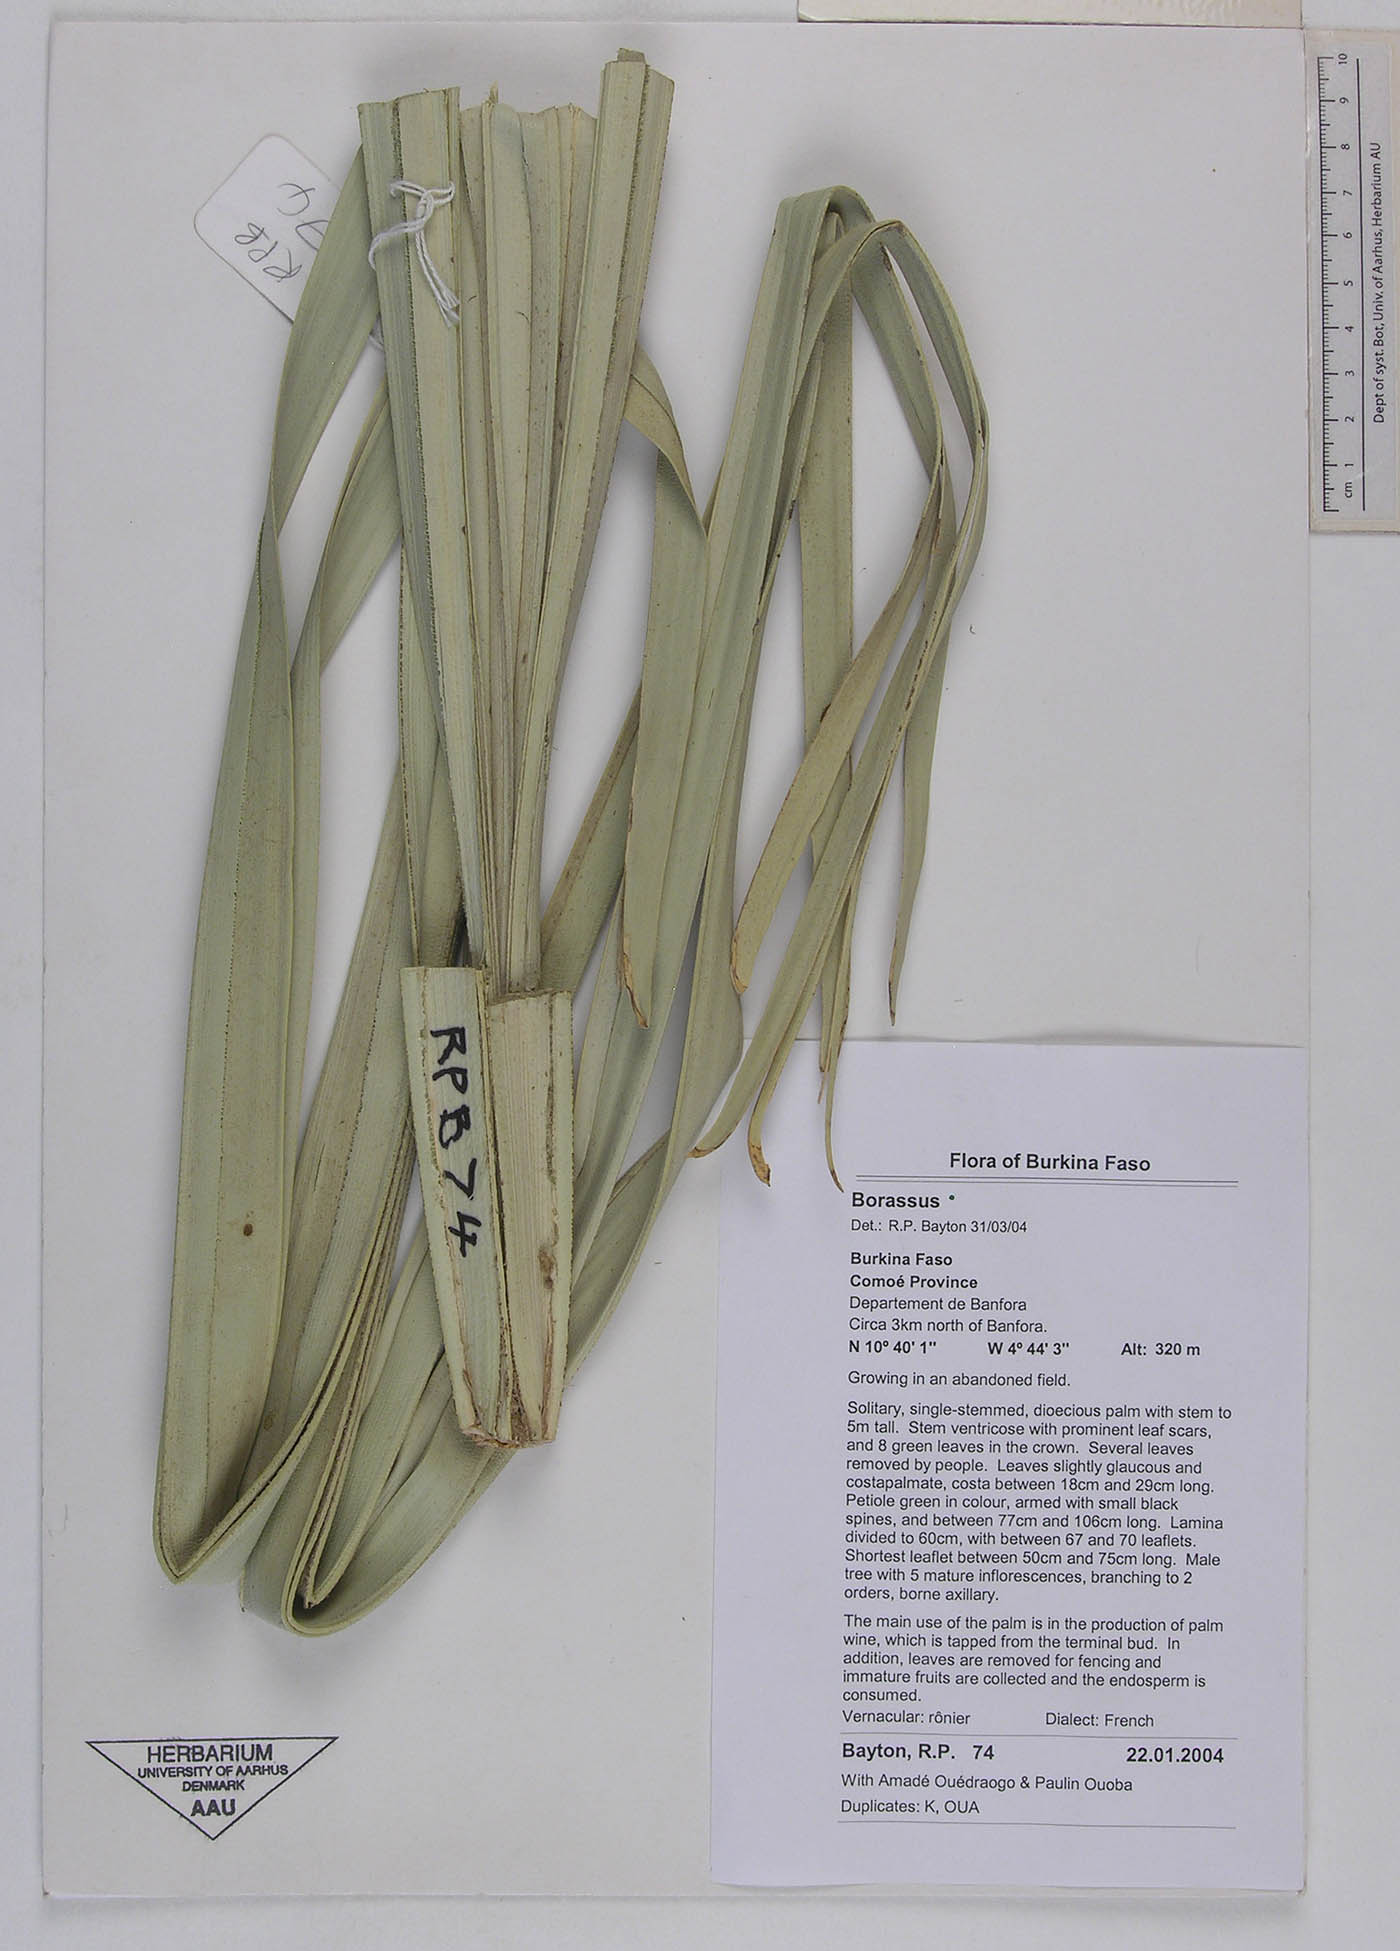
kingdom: Plantae
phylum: Tracheophyta
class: Liliopsida
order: Arecales
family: Arecaceae
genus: Borassus
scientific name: Borassus
